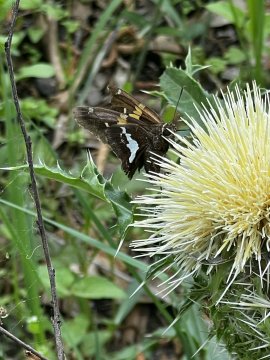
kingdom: Animalia
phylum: Arthropoda
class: Insecta
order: Lepidoptera
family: Hesperiidae
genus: Epargyreus
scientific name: Epargyreus clarus
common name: Silver-spotted Skipper
